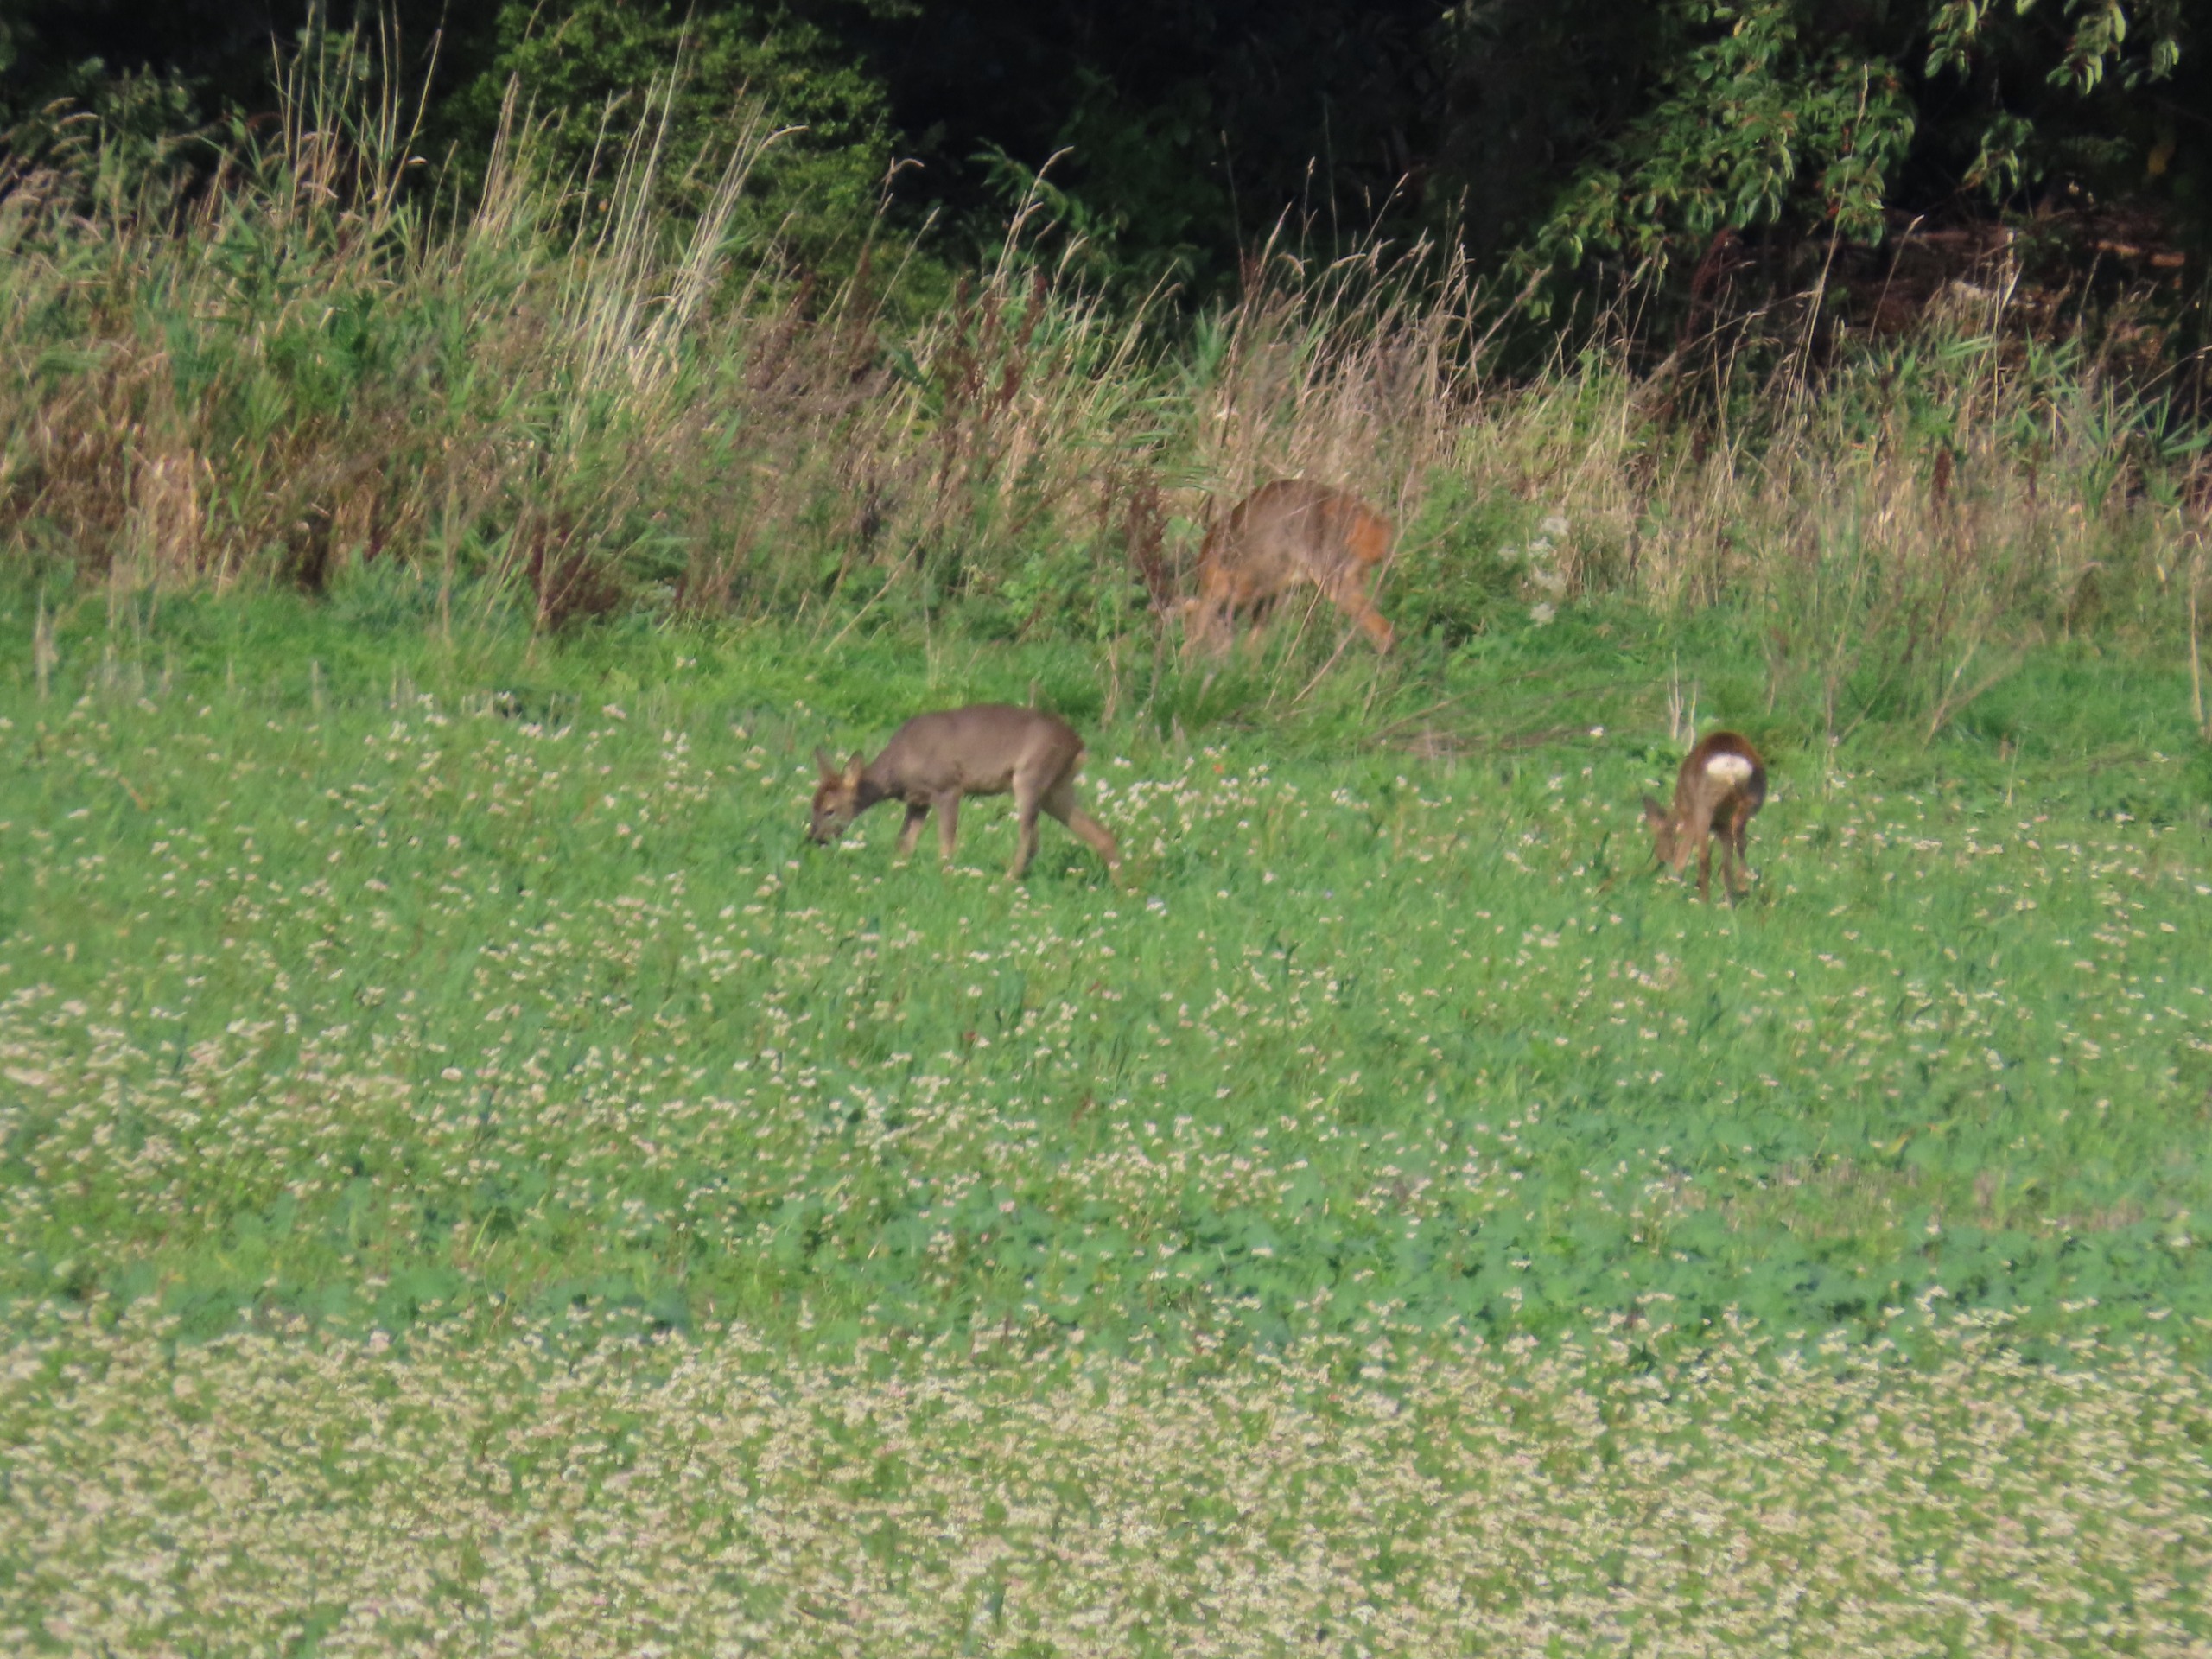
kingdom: Animalia
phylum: Chordata
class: Mammalia
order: Artiodactyla
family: Cervidae
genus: Capreolus
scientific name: Capreolus capreolus
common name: Rådyr
